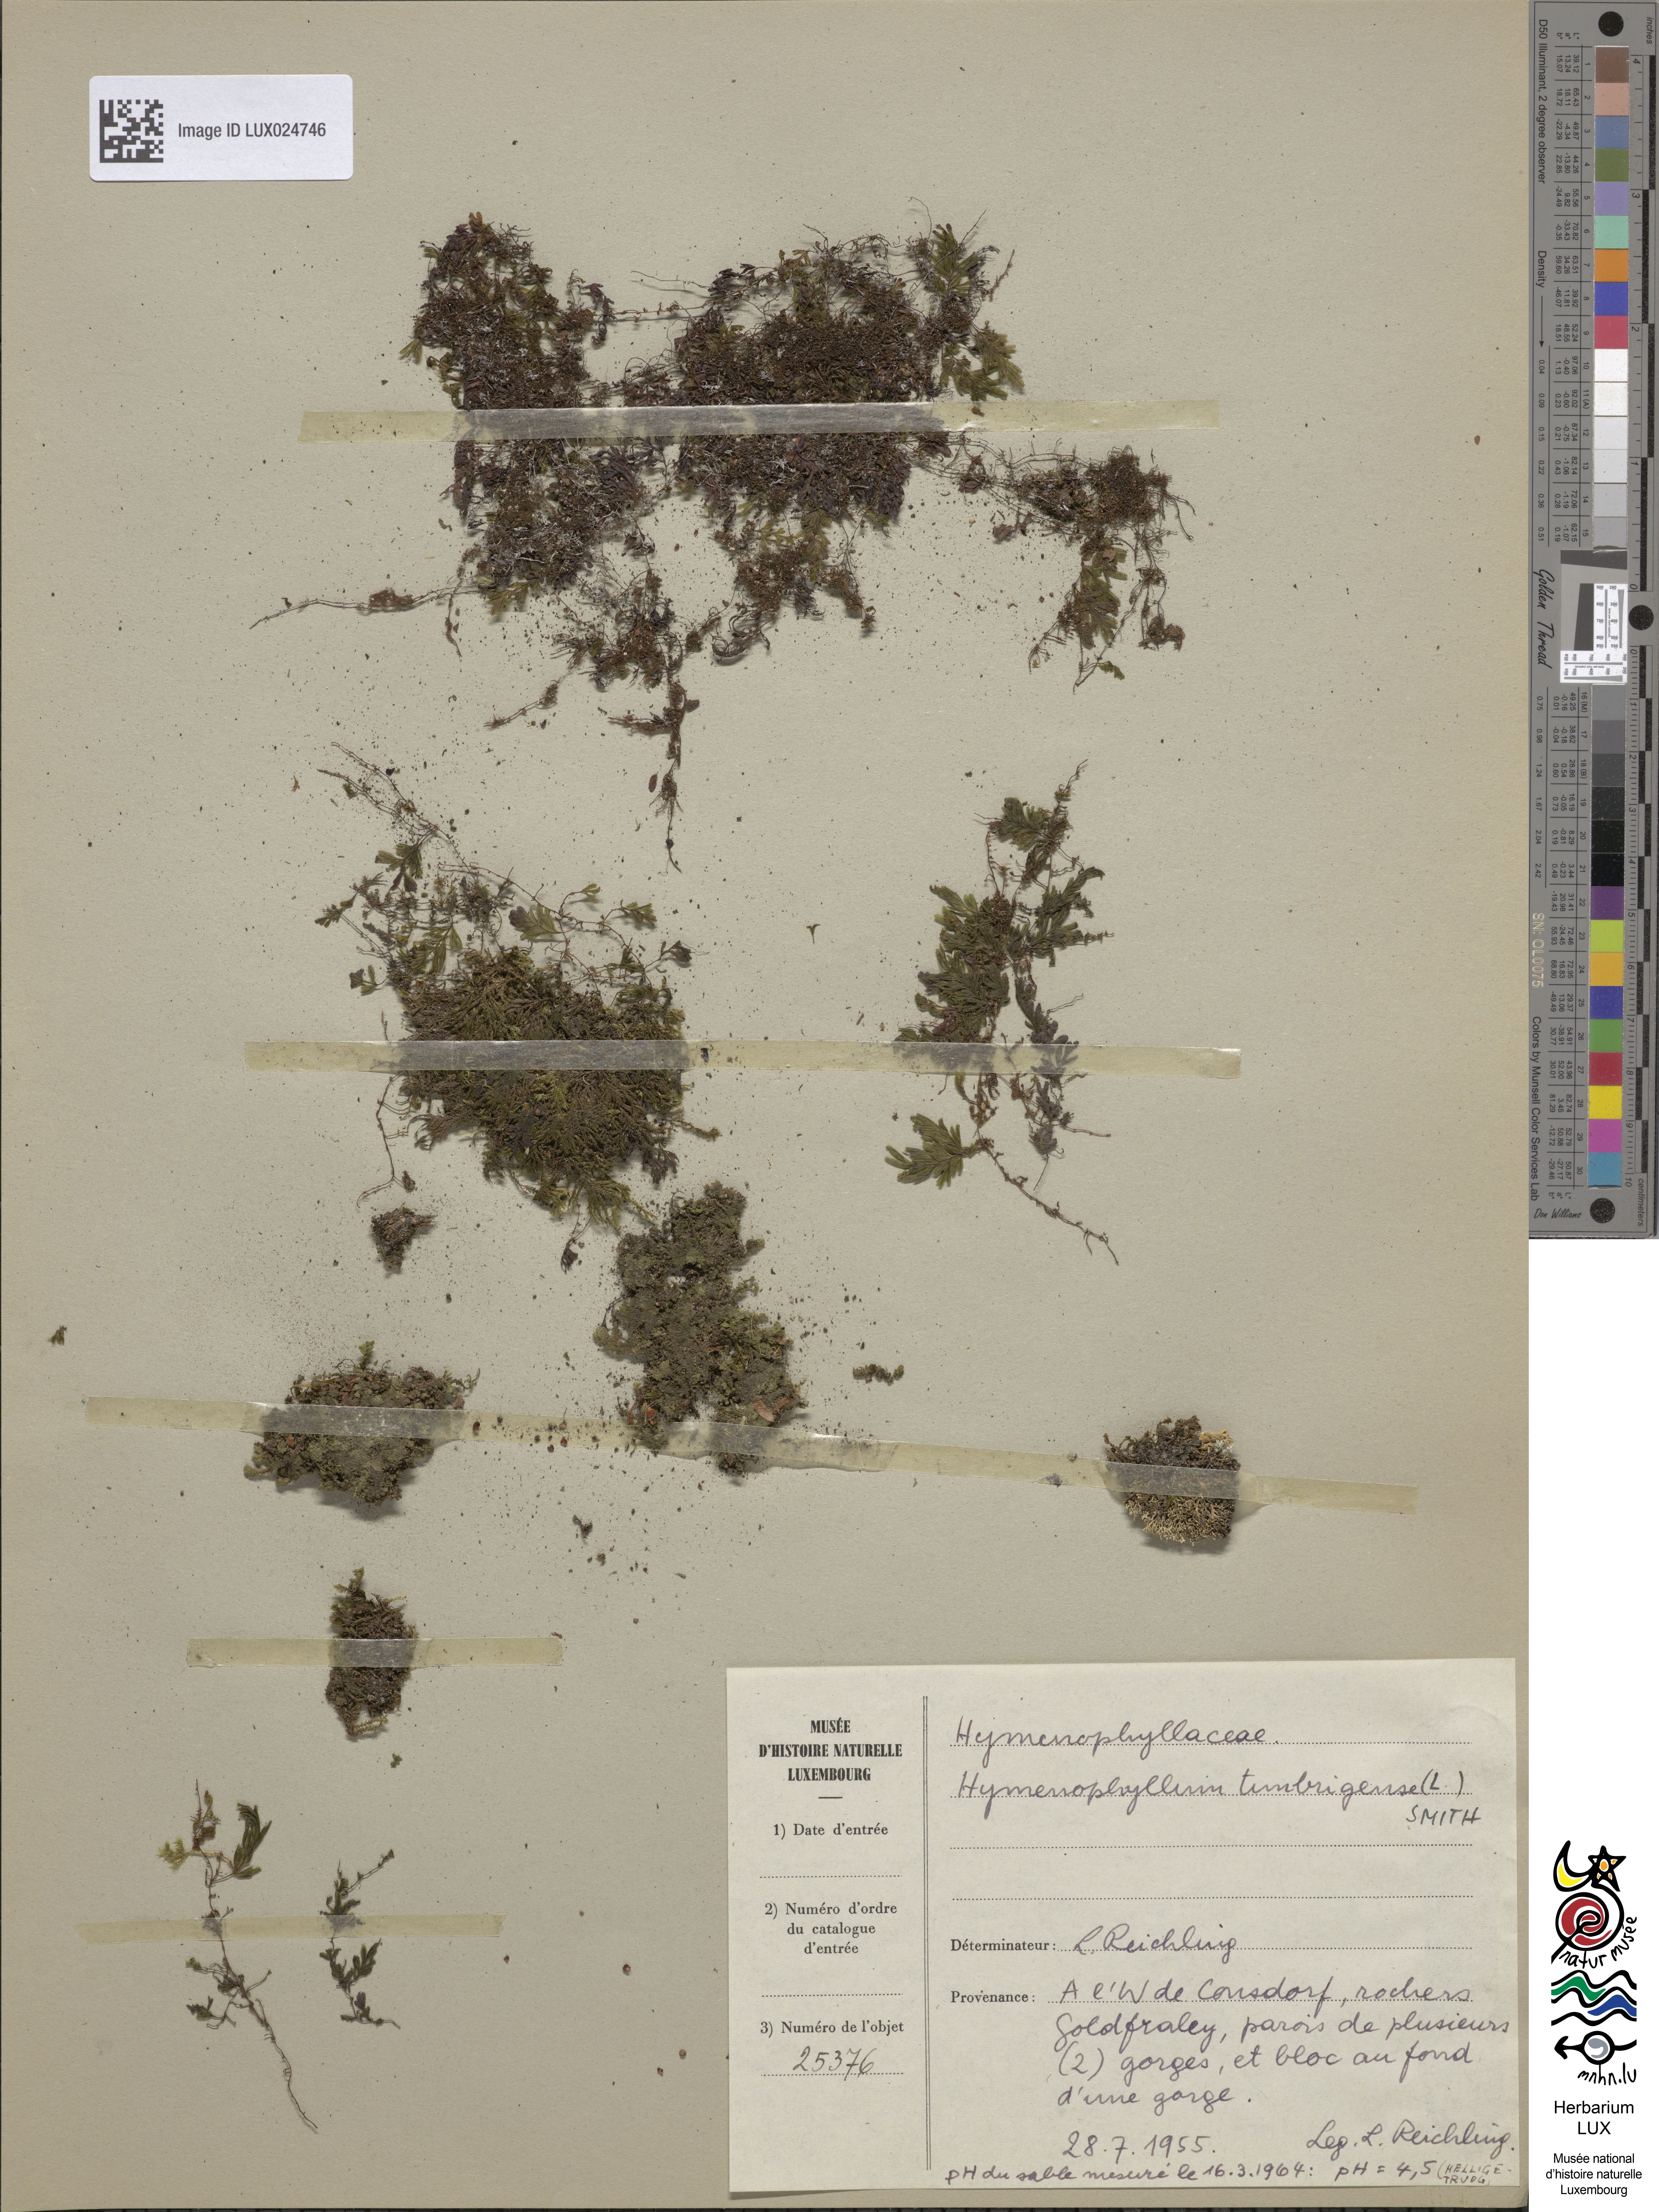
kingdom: Plantae
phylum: Tracheophyta
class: Polypodiopsida
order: Hymenophyllales
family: Hymenophyllaceae
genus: Hymenophyllum
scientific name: Hymenophyllum tunbrigense
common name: Tunbridge filmy fern
